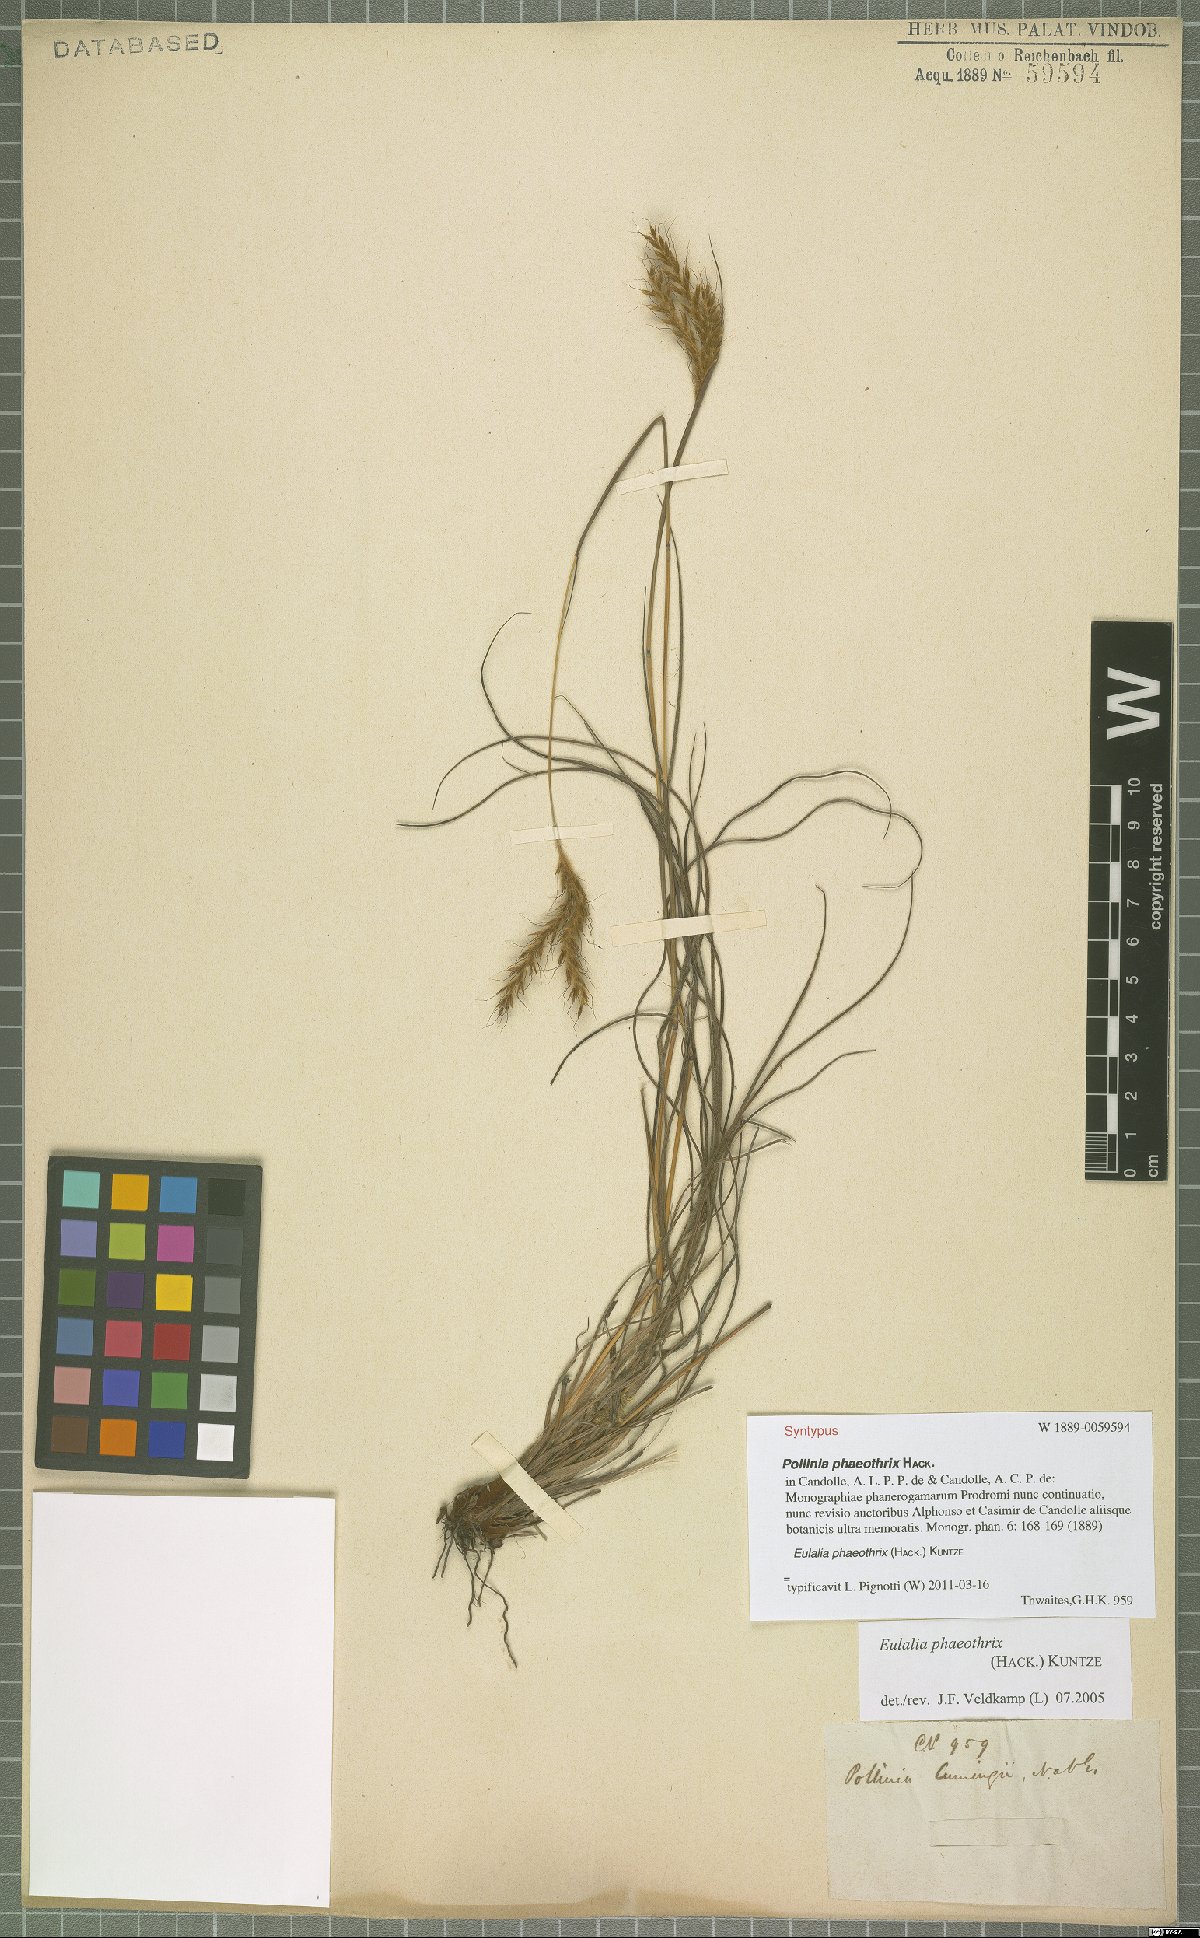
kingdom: Plantae
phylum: Tracheophyta
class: Liliopsida
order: Poales
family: Poaceae
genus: Eulalia
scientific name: Eulalia phaeothrix
